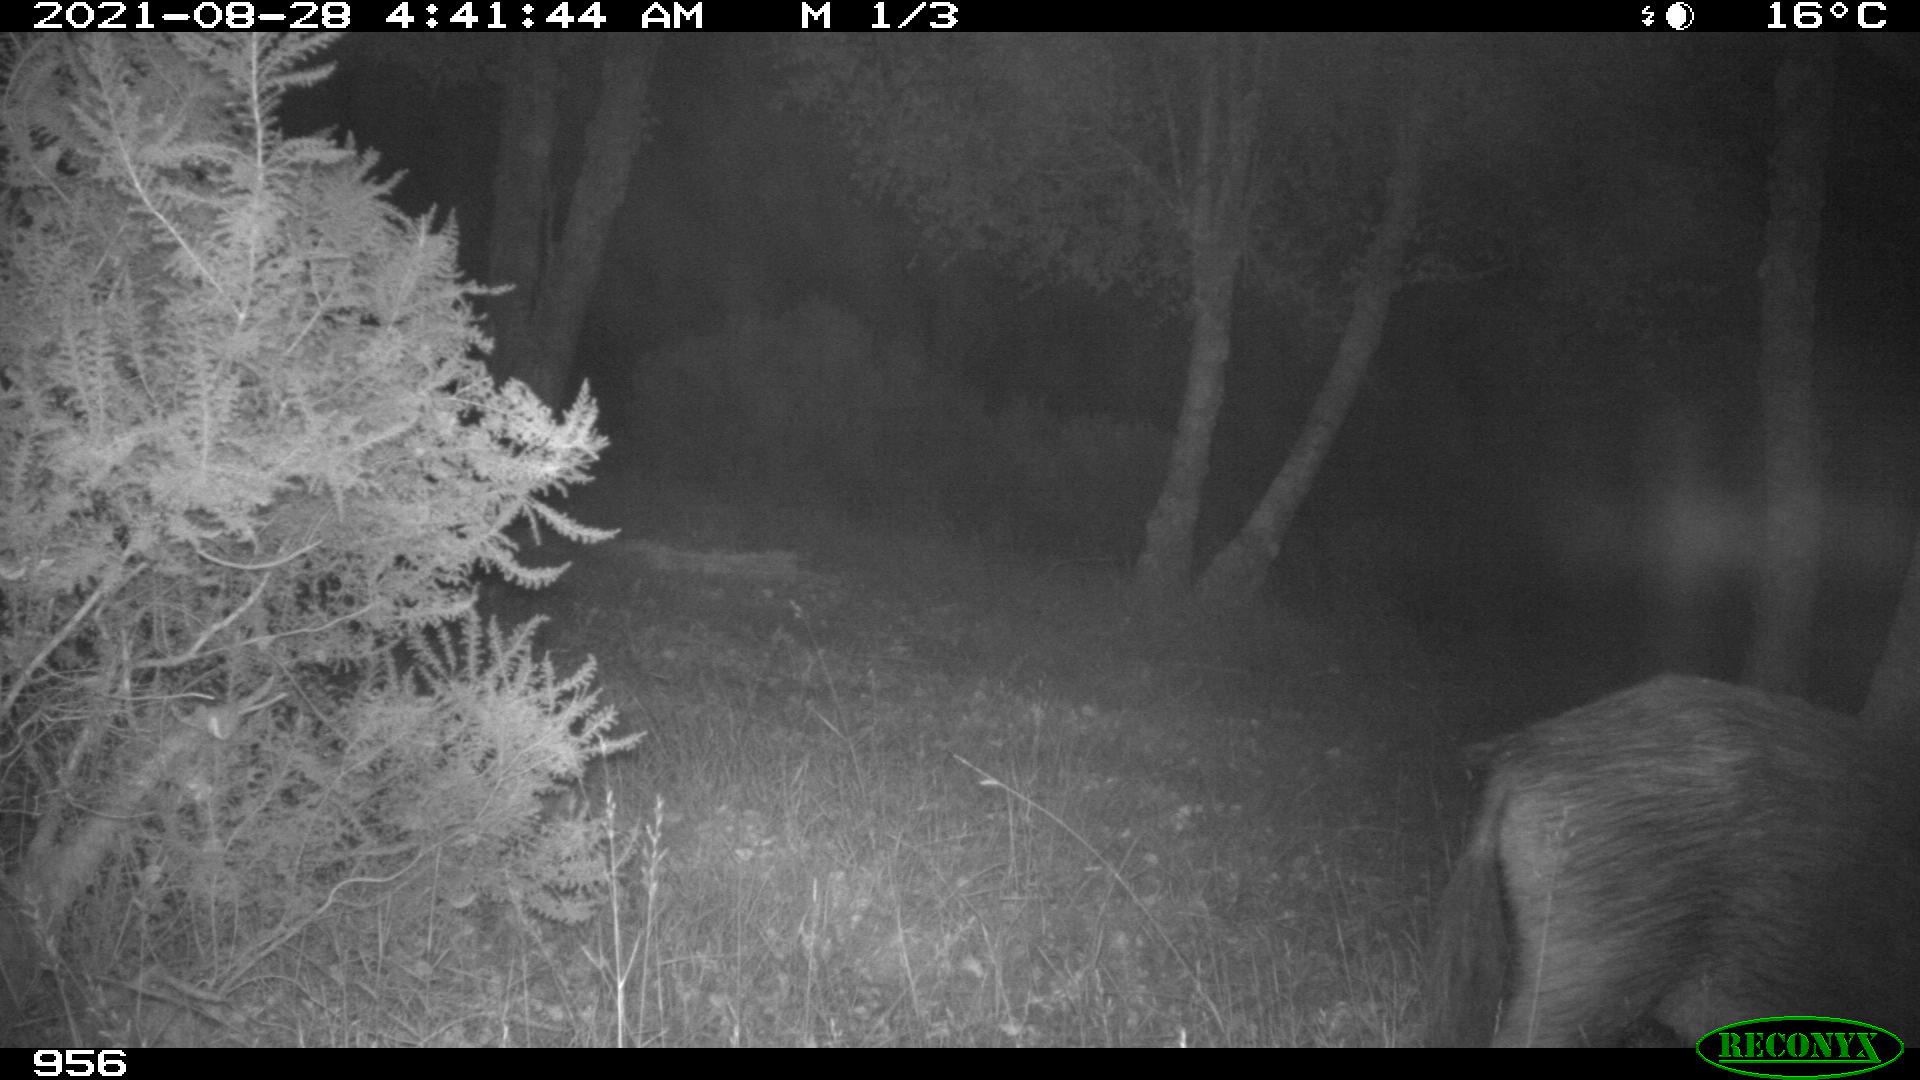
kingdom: Animalia
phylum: Chordata
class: Mammalia
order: Artiodactyla
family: Suidae
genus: Sus
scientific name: Sus scrofa
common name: Wild boar
